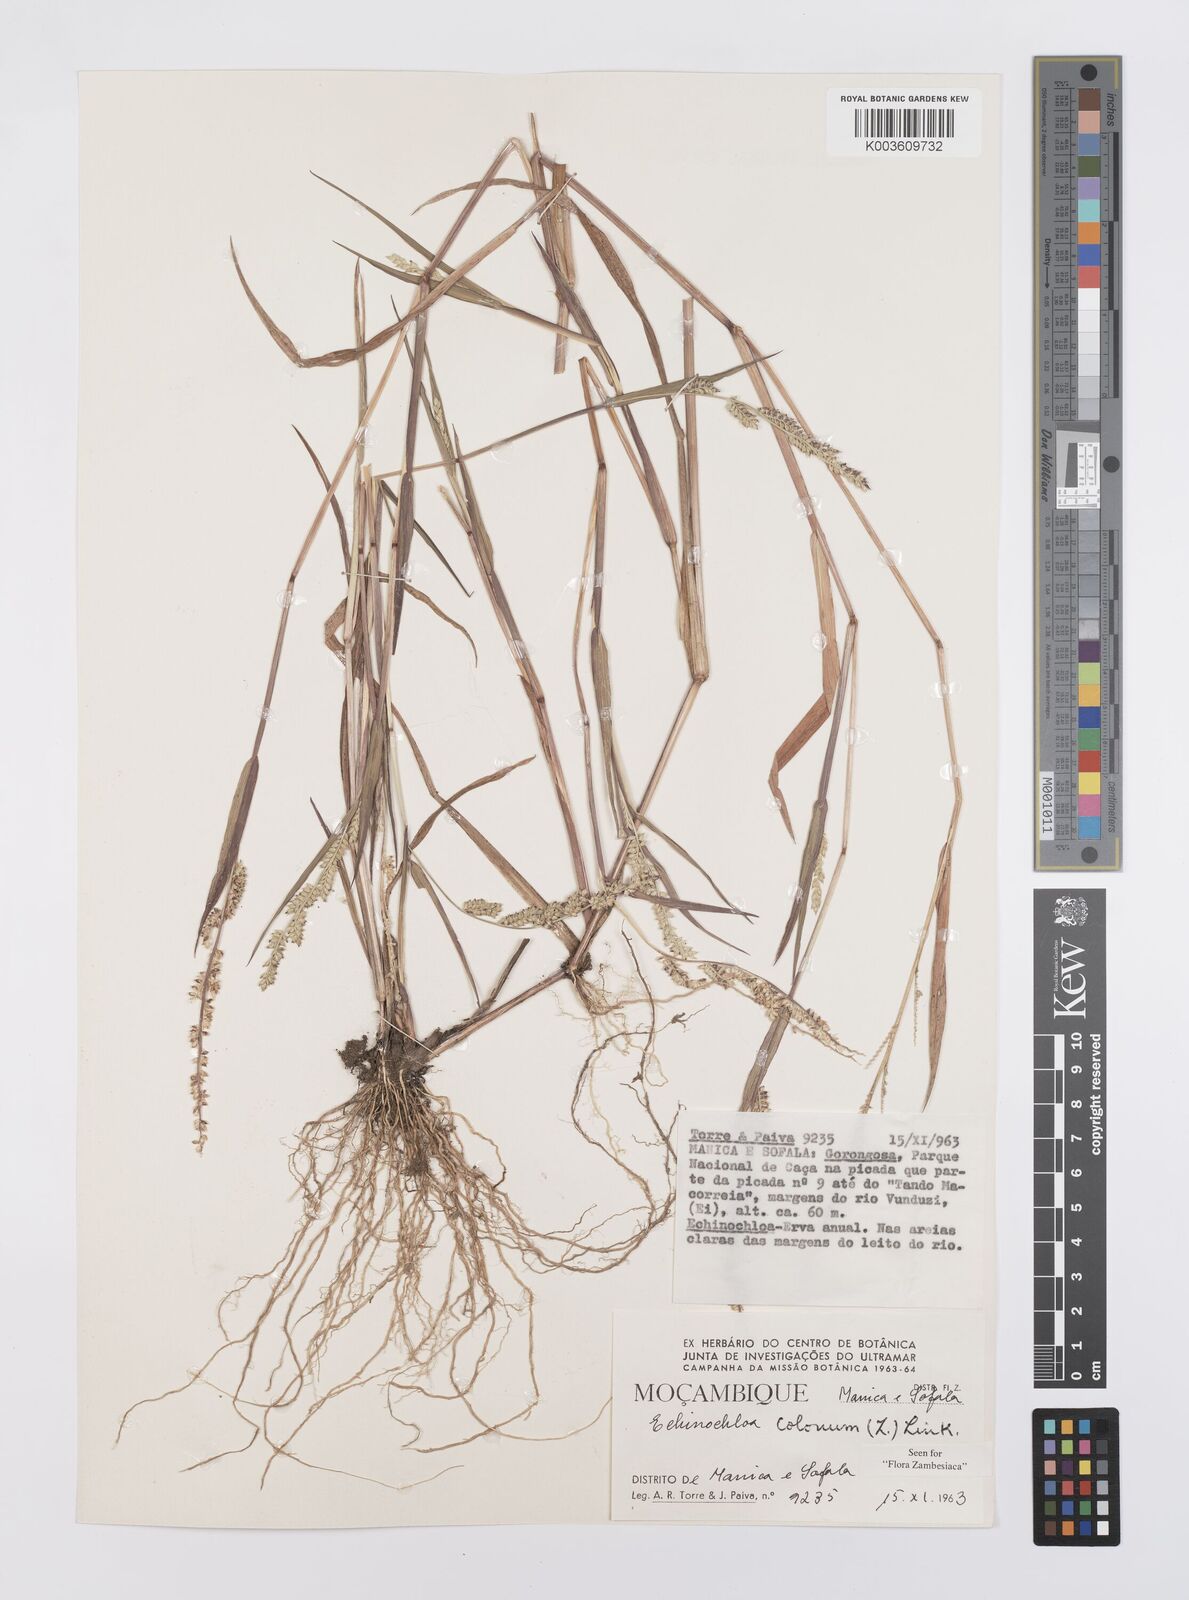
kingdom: Plantae
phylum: Tracheophyta
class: Liliopsida
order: Poales
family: Poaceae
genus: Echinochloa
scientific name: Echinochloa colonum
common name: Jungle rice
